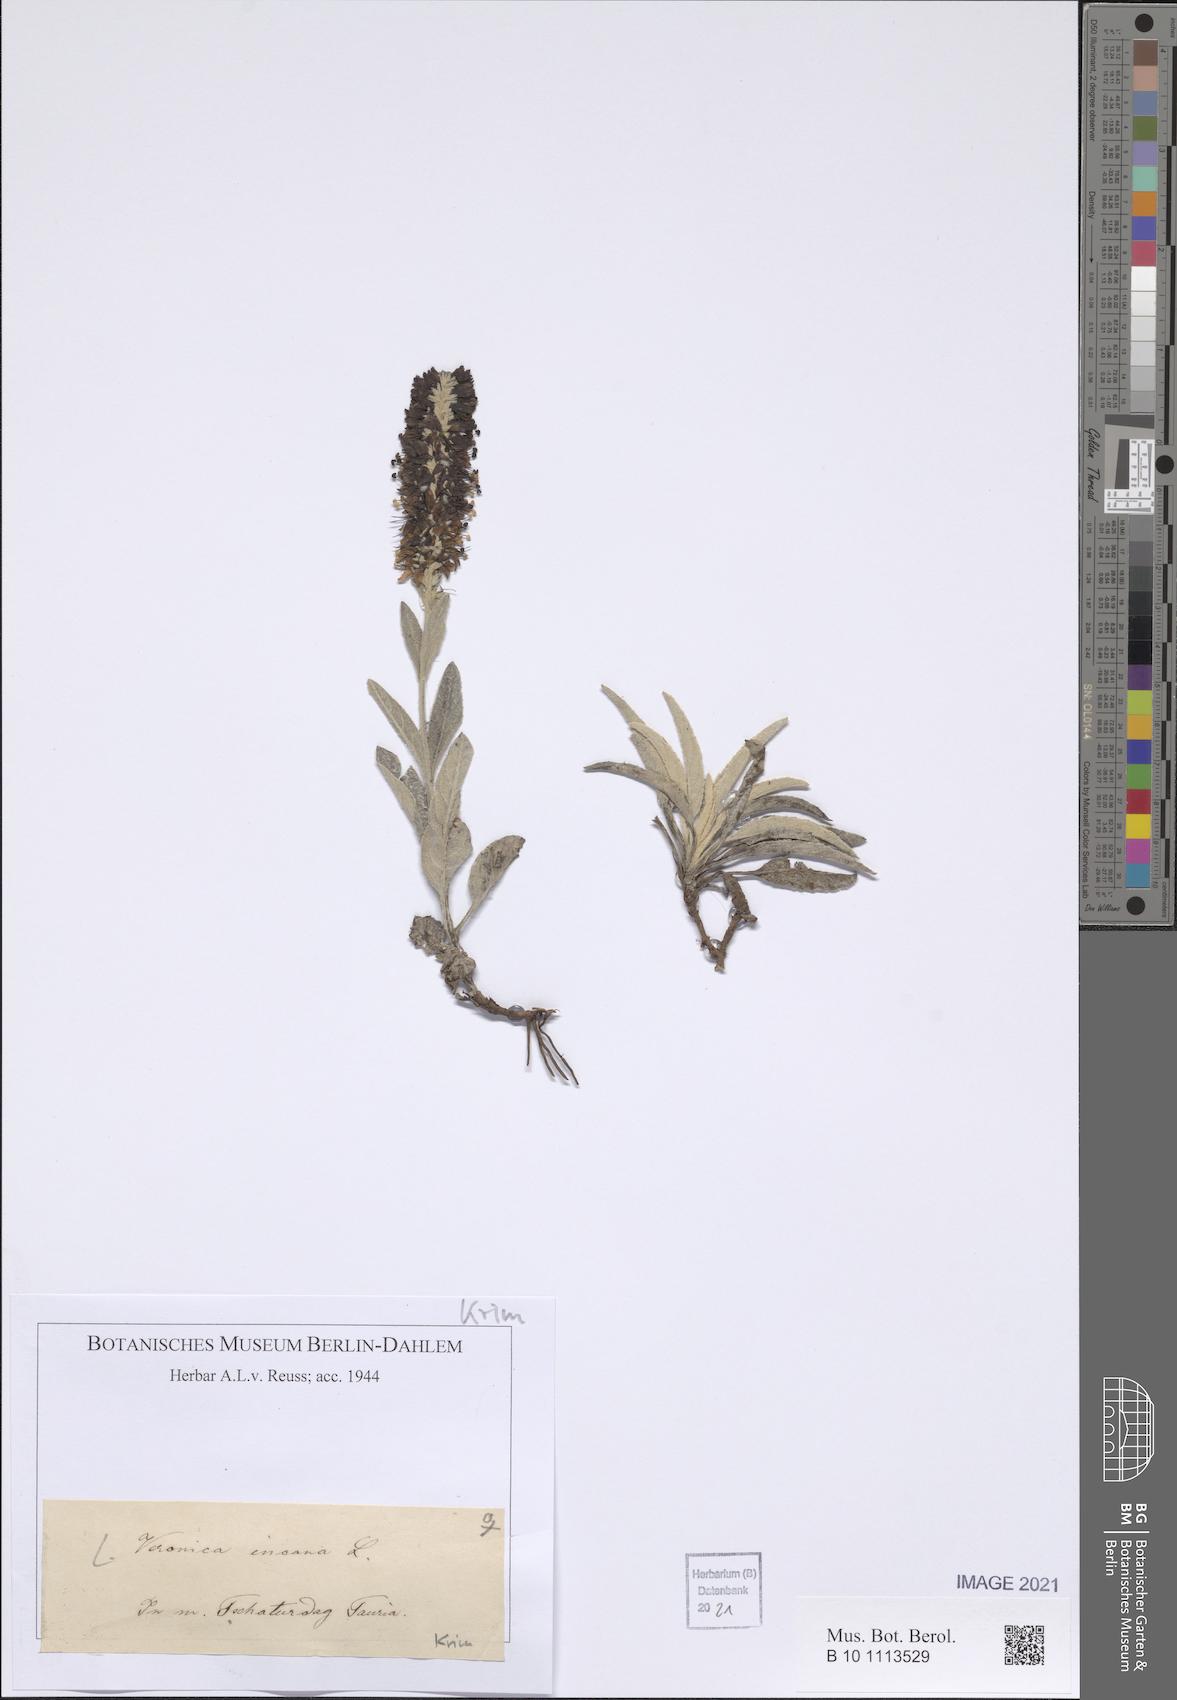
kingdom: Plantae
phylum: Tracheophyta
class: Magnoliopsida
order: Lamiales
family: Plantaginaceae
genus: Veronica
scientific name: Veronica incana
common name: Silver speedwell
